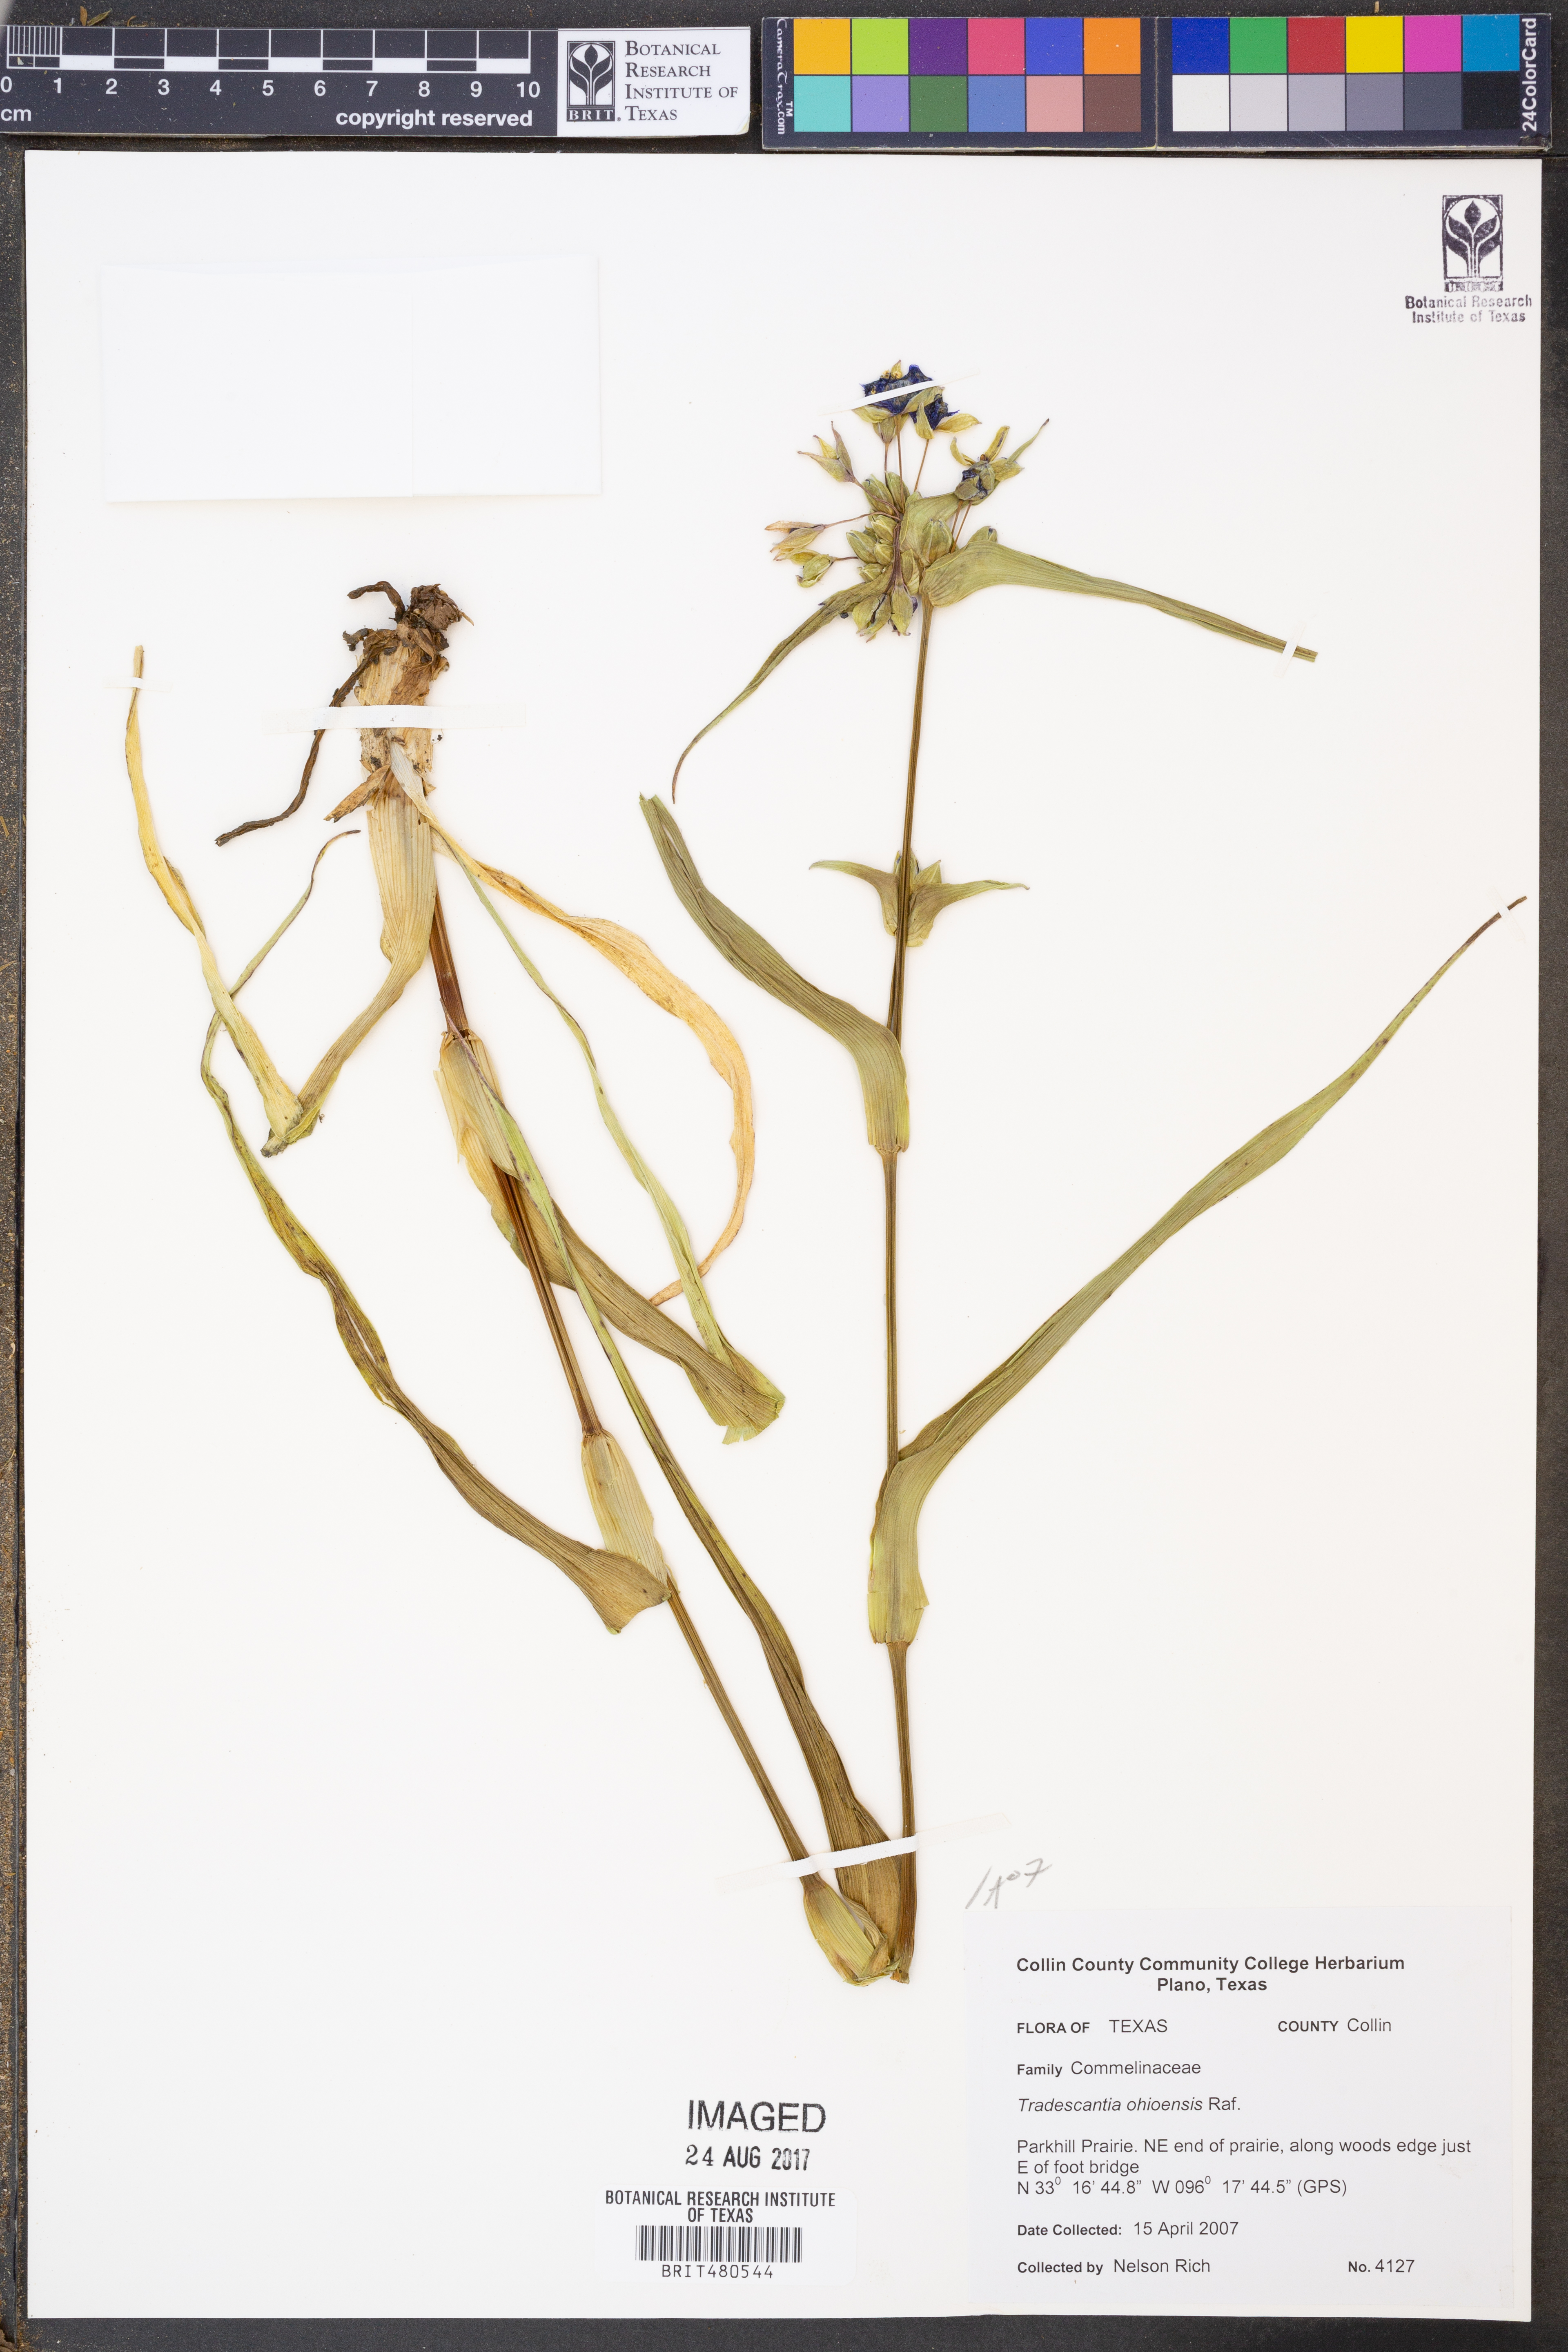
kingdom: Plantae
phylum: Tracheophyta
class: Liliopsida
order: Commelinales
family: Commelinaceae
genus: Tradescantia
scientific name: Tradescantia ohiensis
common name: Ohio spiderwort
